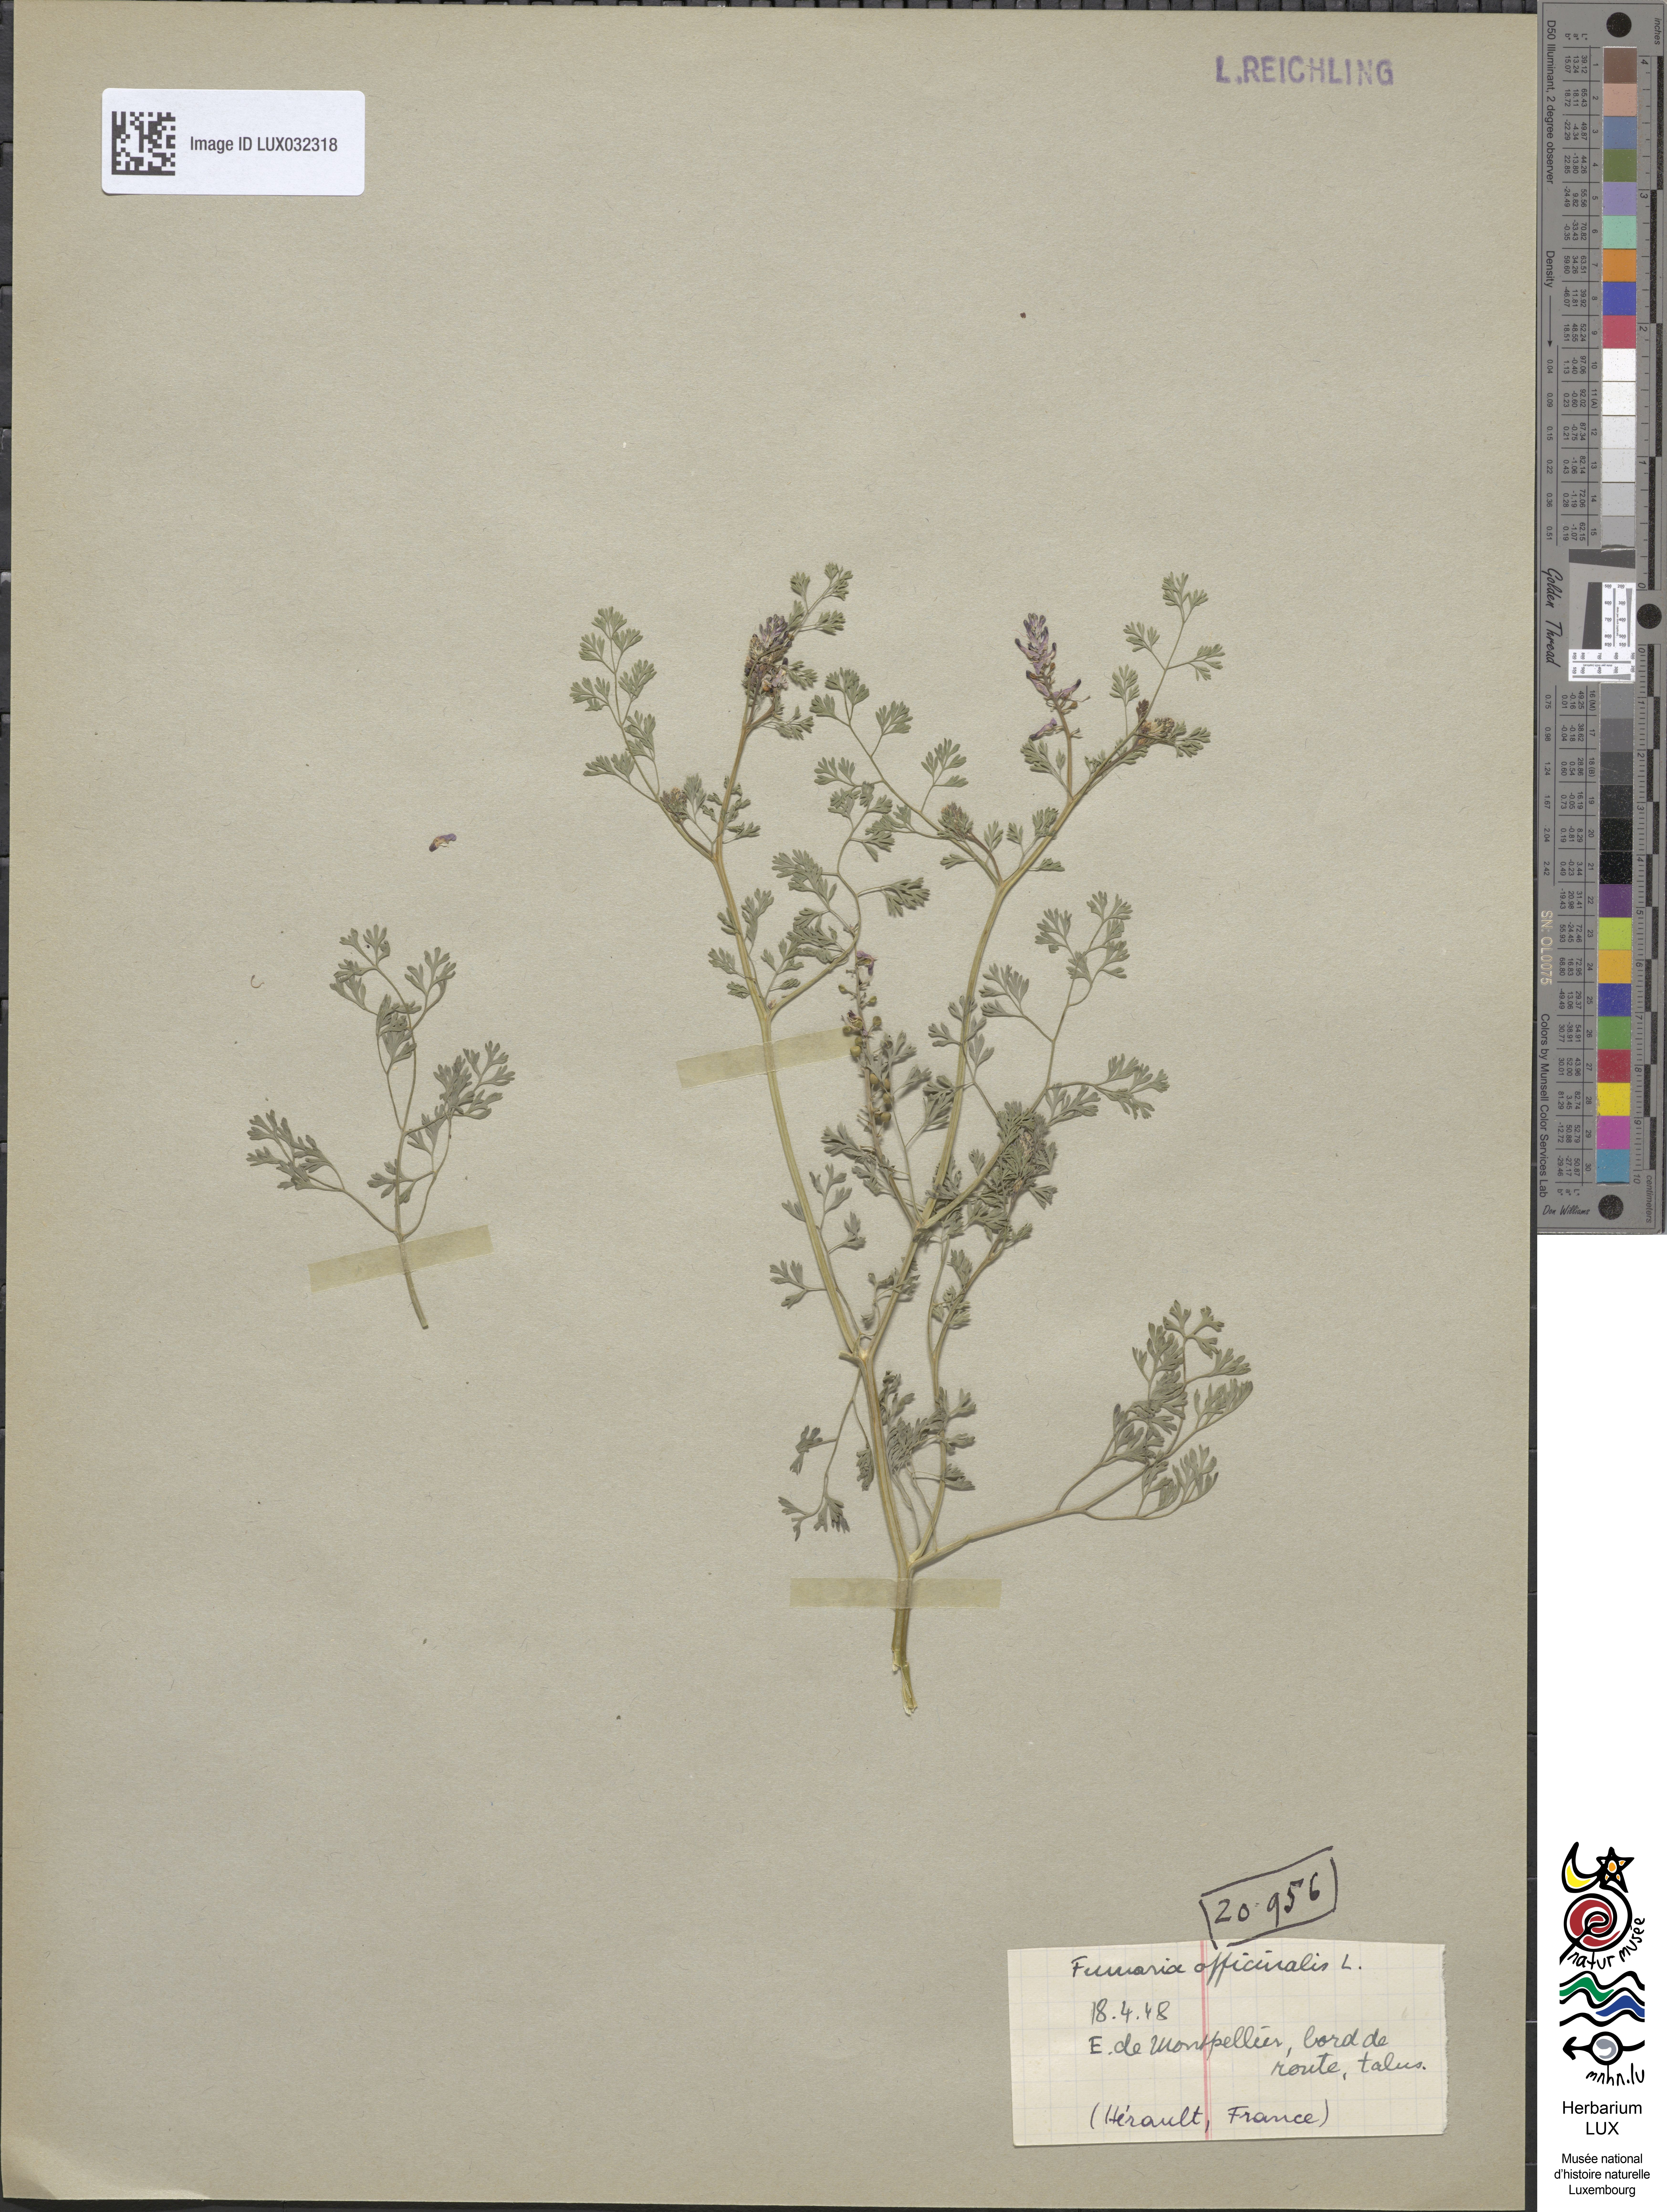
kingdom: Plantae
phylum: Tracheophyta
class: Magnoliopsida
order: Ranunculales
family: Papaveraceae
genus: Fumaria
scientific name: Fumaria officinalis
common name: Common fumitory
